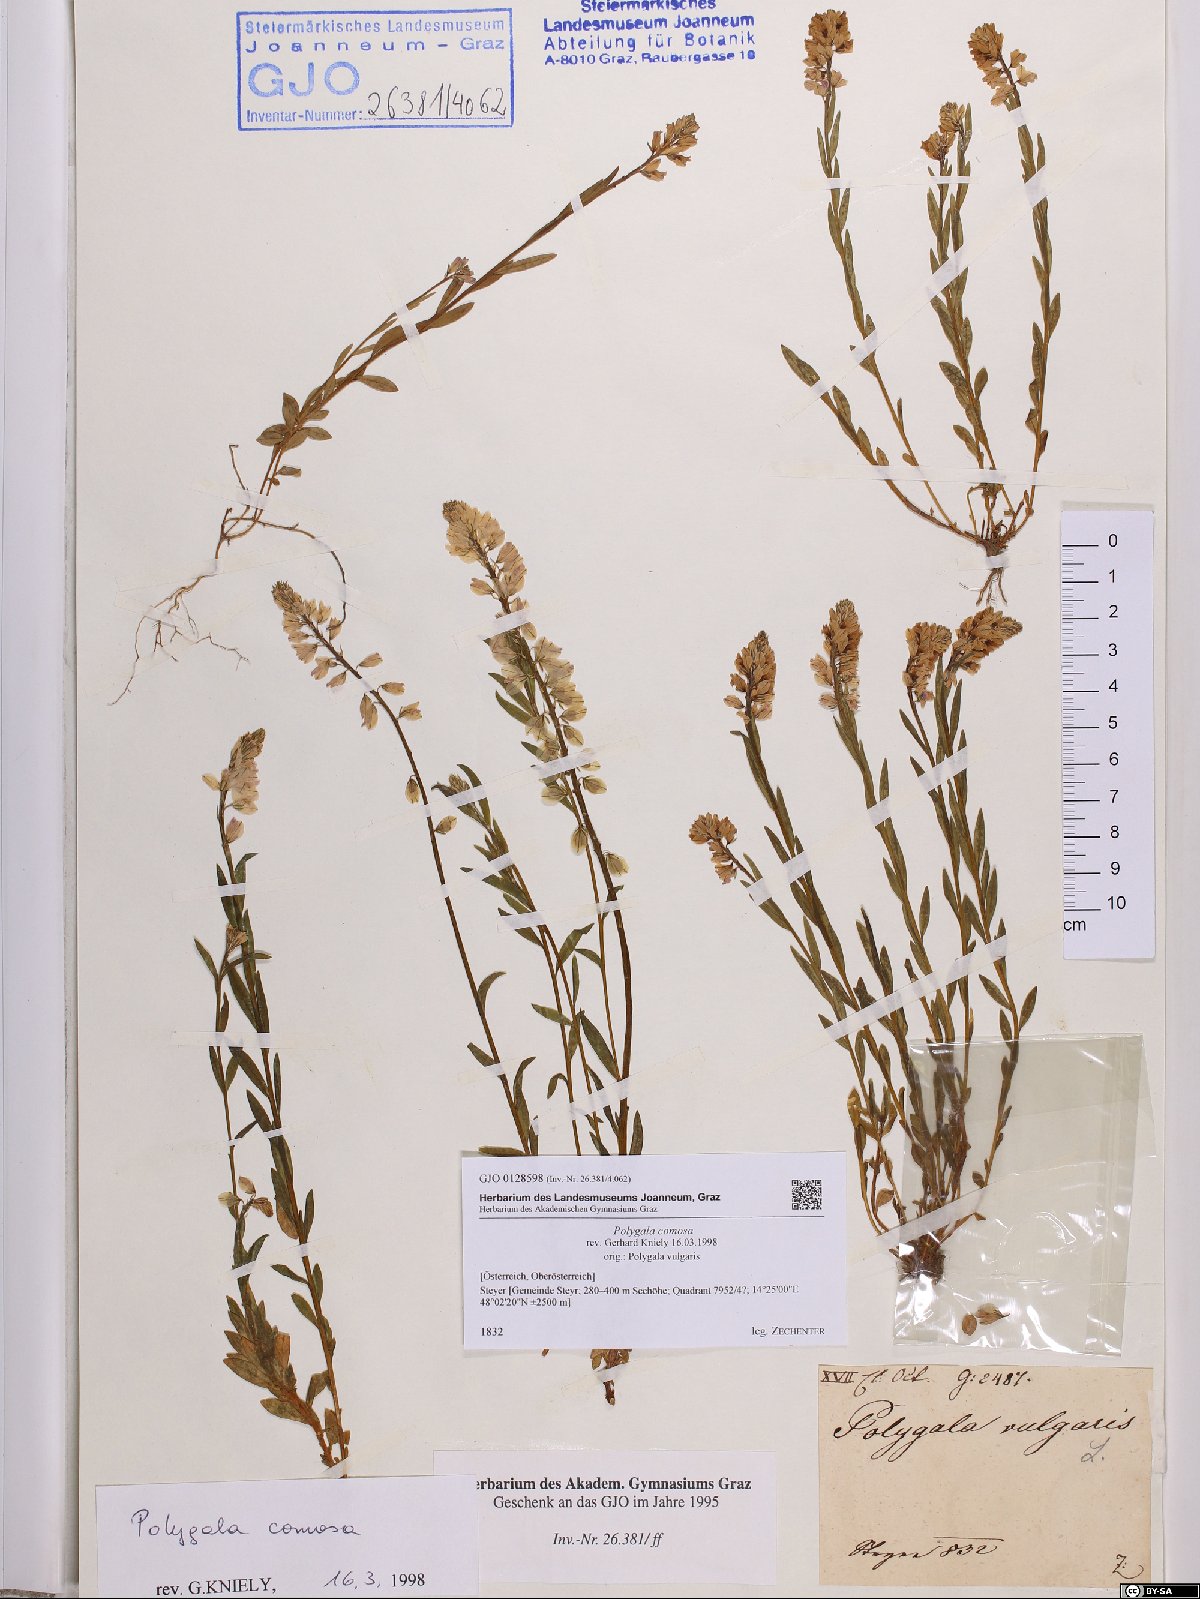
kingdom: Plantae
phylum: Tracheophyta
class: Magnoliopsida
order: Fabales
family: Polygalaceae
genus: Polygala
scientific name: Polygala comosa
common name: Tufted milkwort
